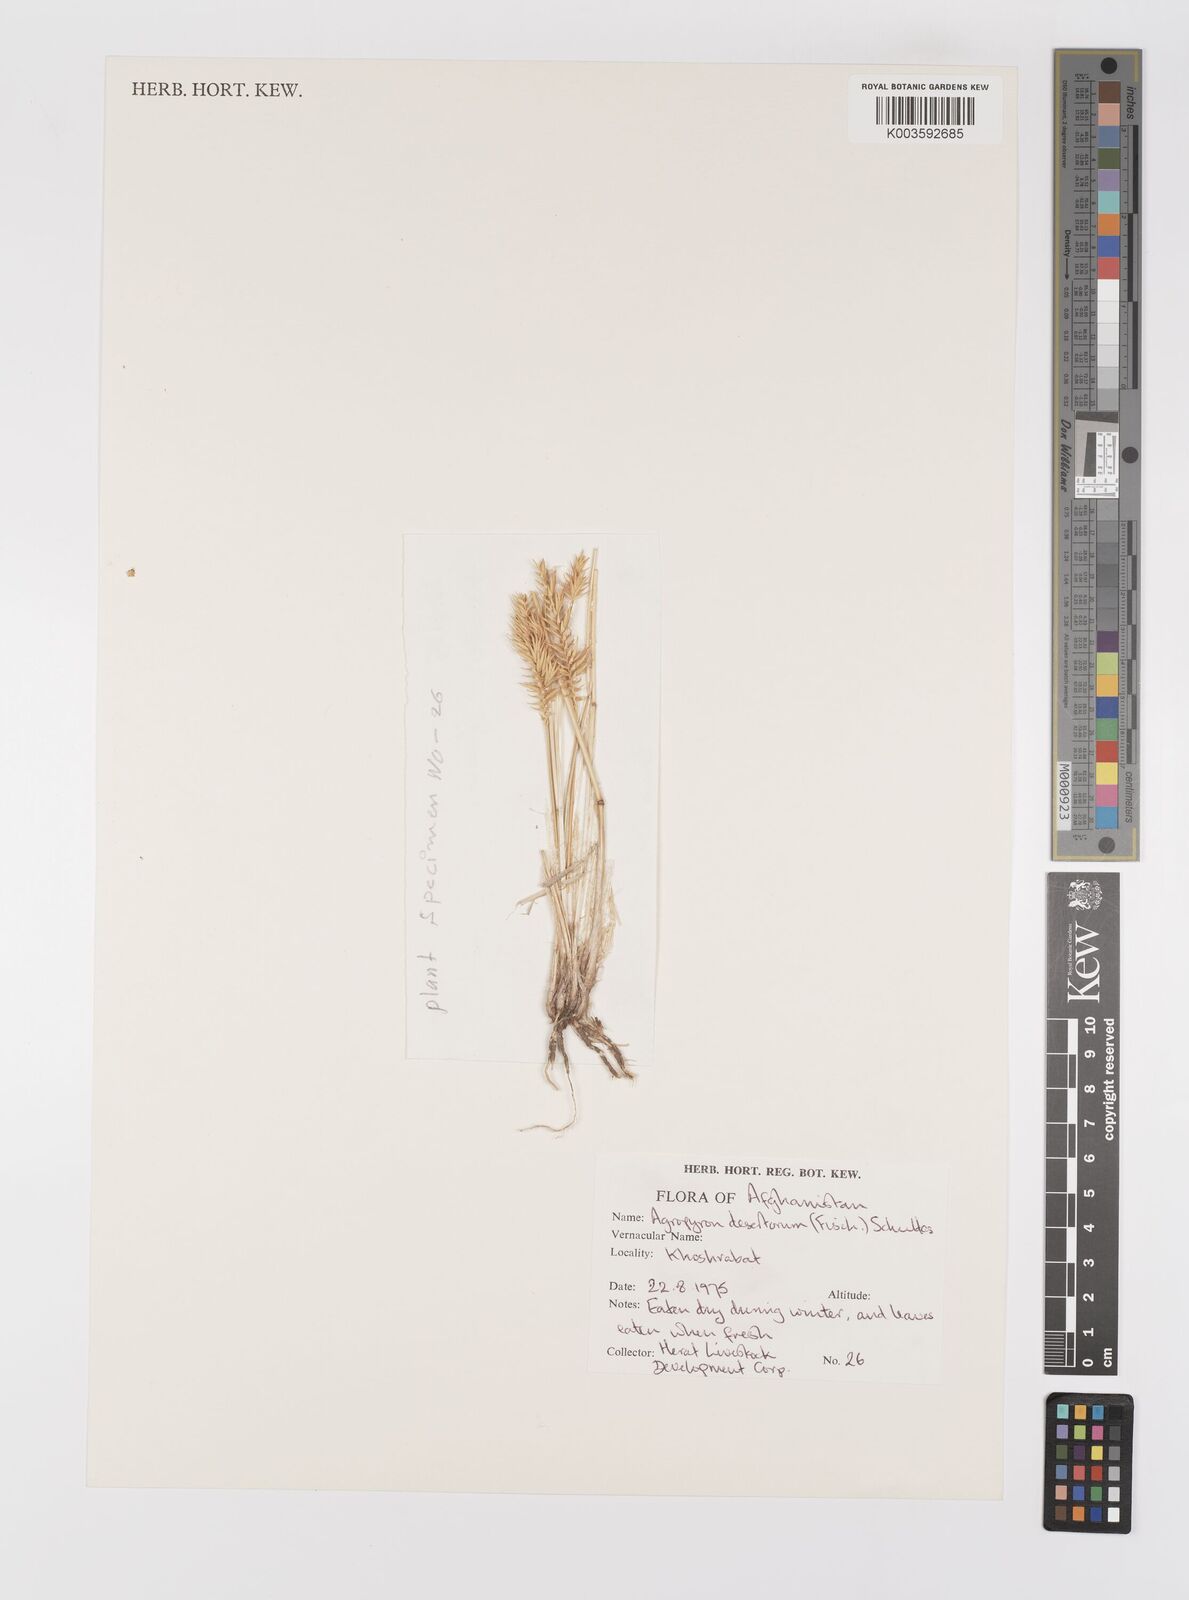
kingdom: Plantae
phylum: Tracheophyta
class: Liliopsida
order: Poales
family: Poaceae
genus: Agropyron
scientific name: Agropyron desertorum
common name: Desert wheatgrass
